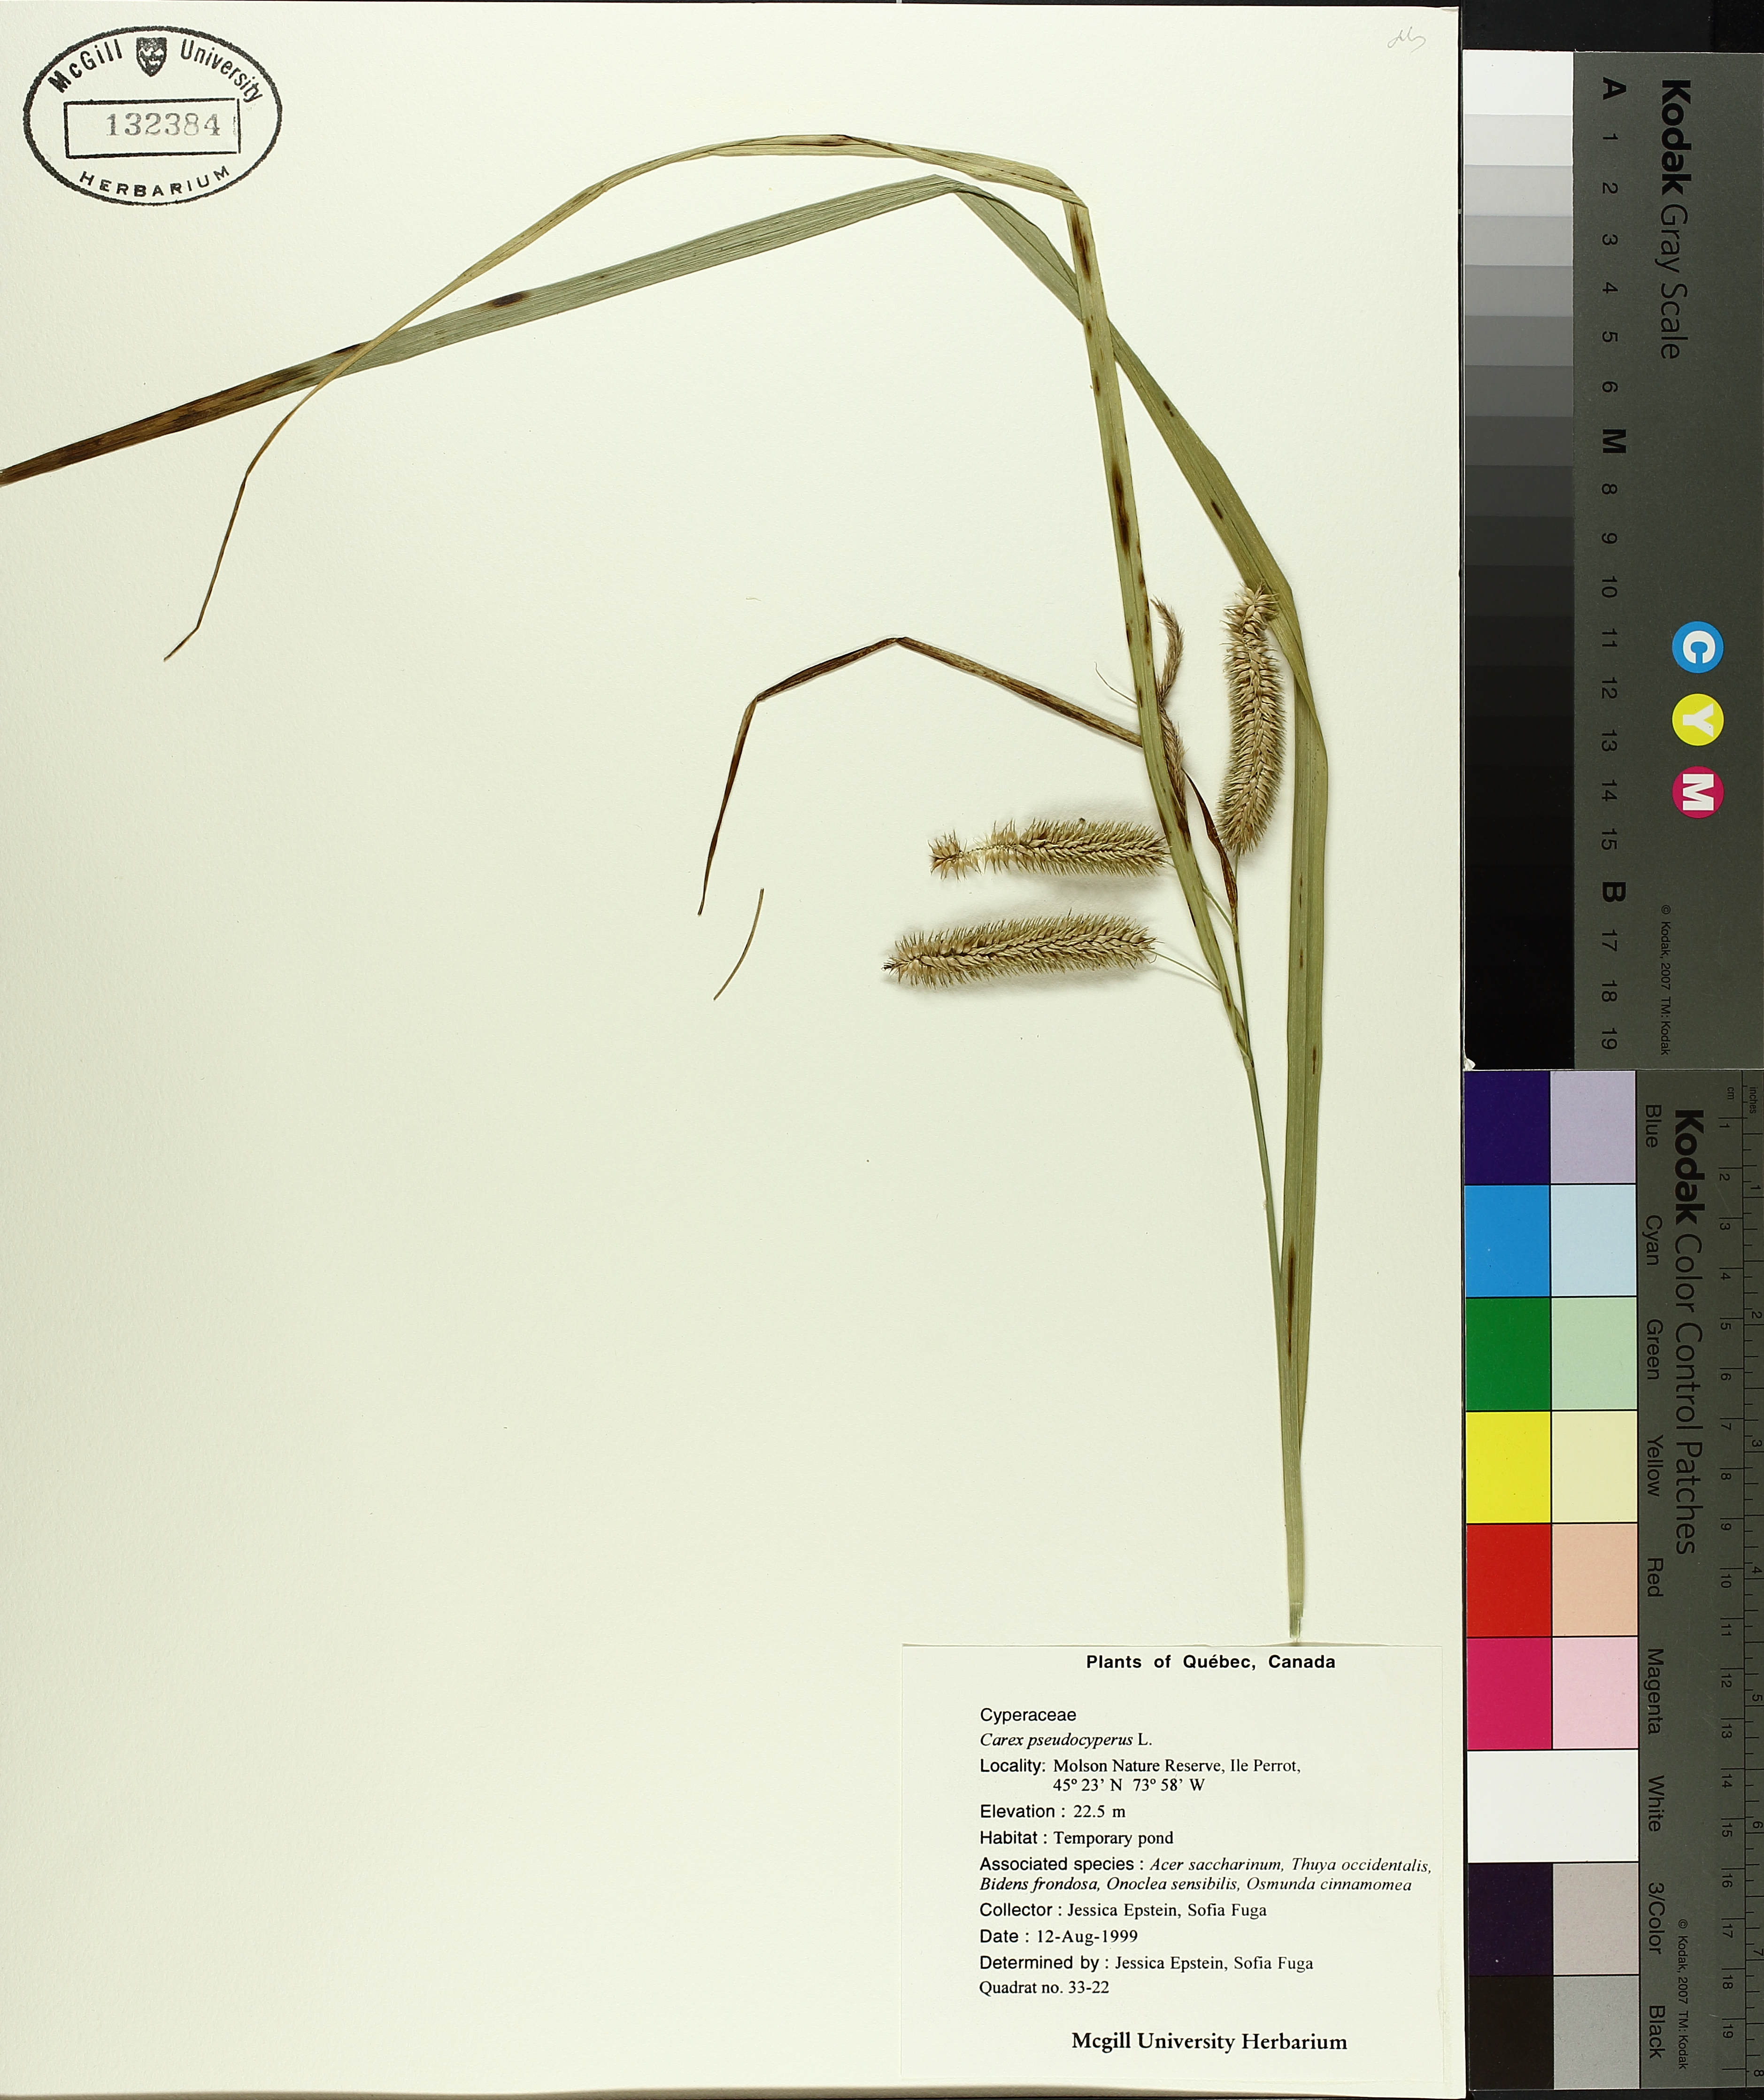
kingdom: Plantae
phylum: Tracheophyta
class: Liliopsida
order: Poales
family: Cyperaceae
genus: Carex
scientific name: Carex pseudocyperus
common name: Cyperus sedge
